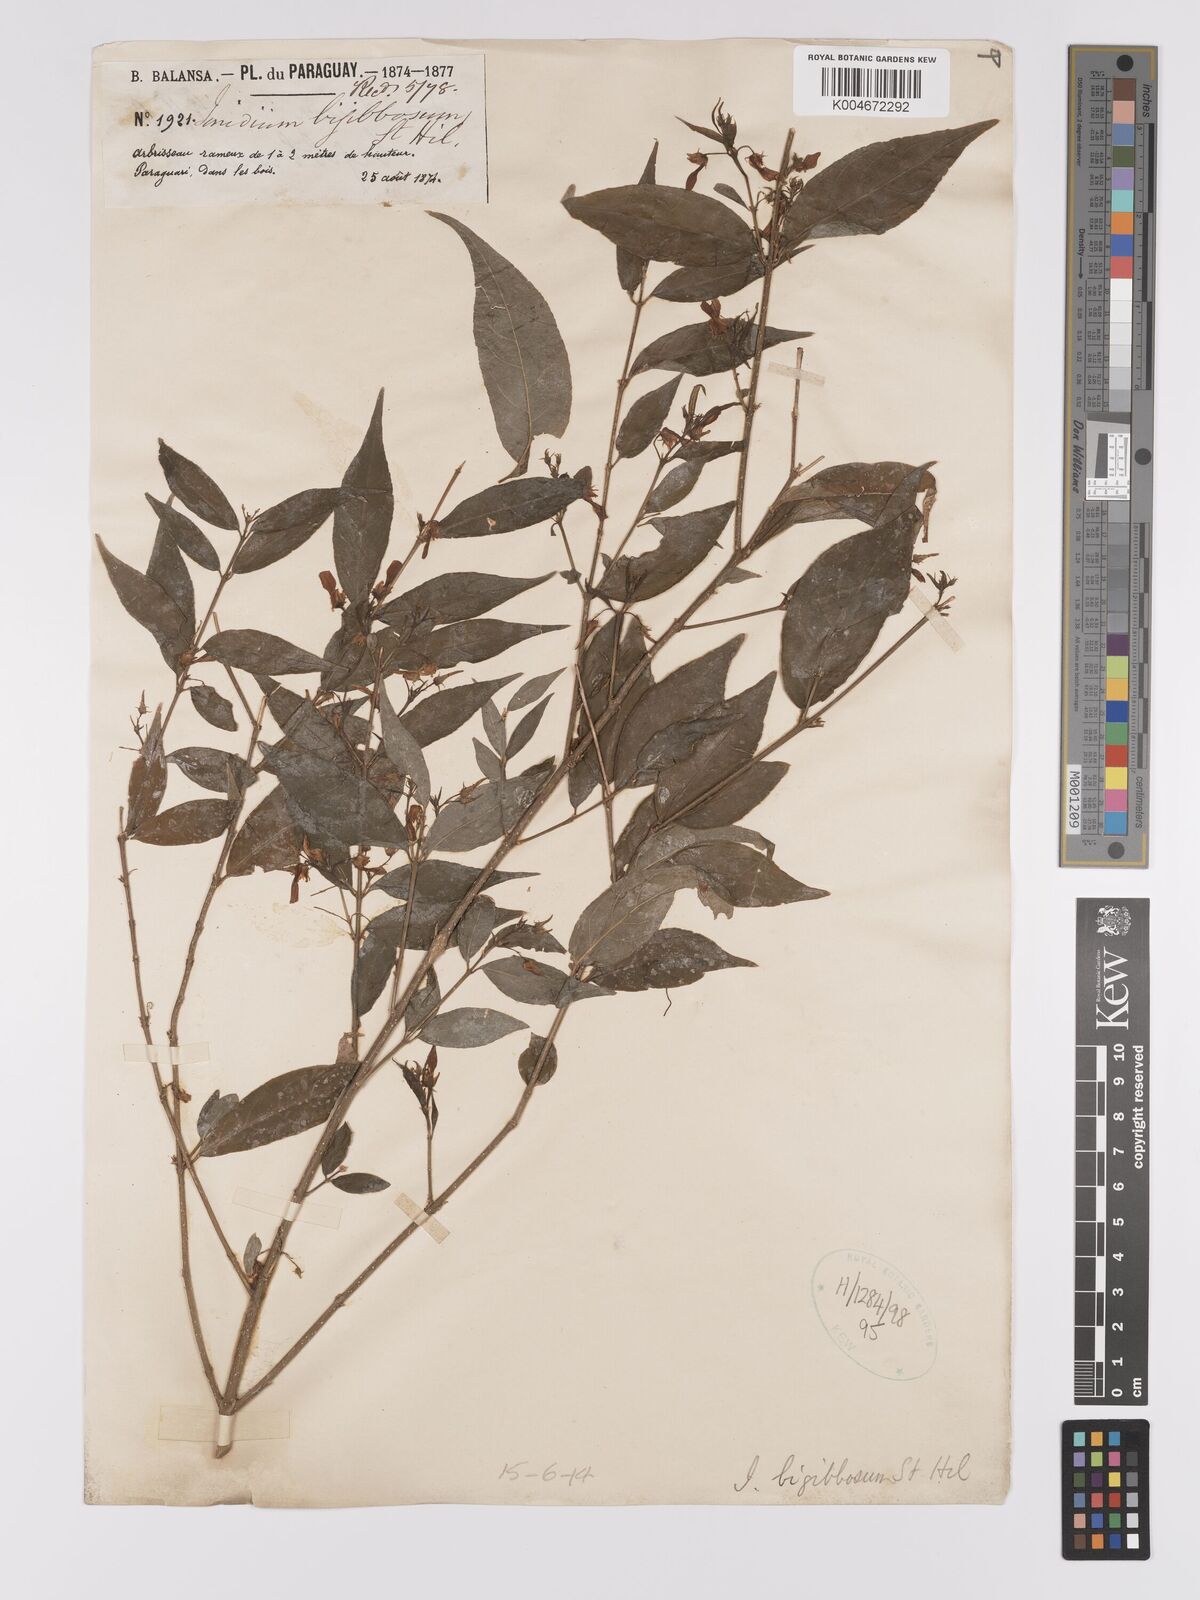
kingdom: Plantae
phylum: Tracheophyta
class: Magnoliopsida
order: Malpighiales
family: Violaceae
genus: Pombalia
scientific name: Pombalia bigibbosa
